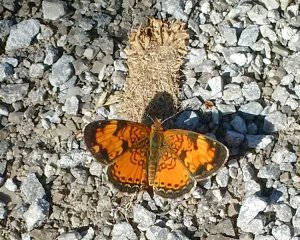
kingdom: Animalia
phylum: Arthropoda
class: Insecta
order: Lepidoptera
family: Nymphalidae
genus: Phyciodes
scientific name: Phyciodes tharos
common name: Northern Crescent
